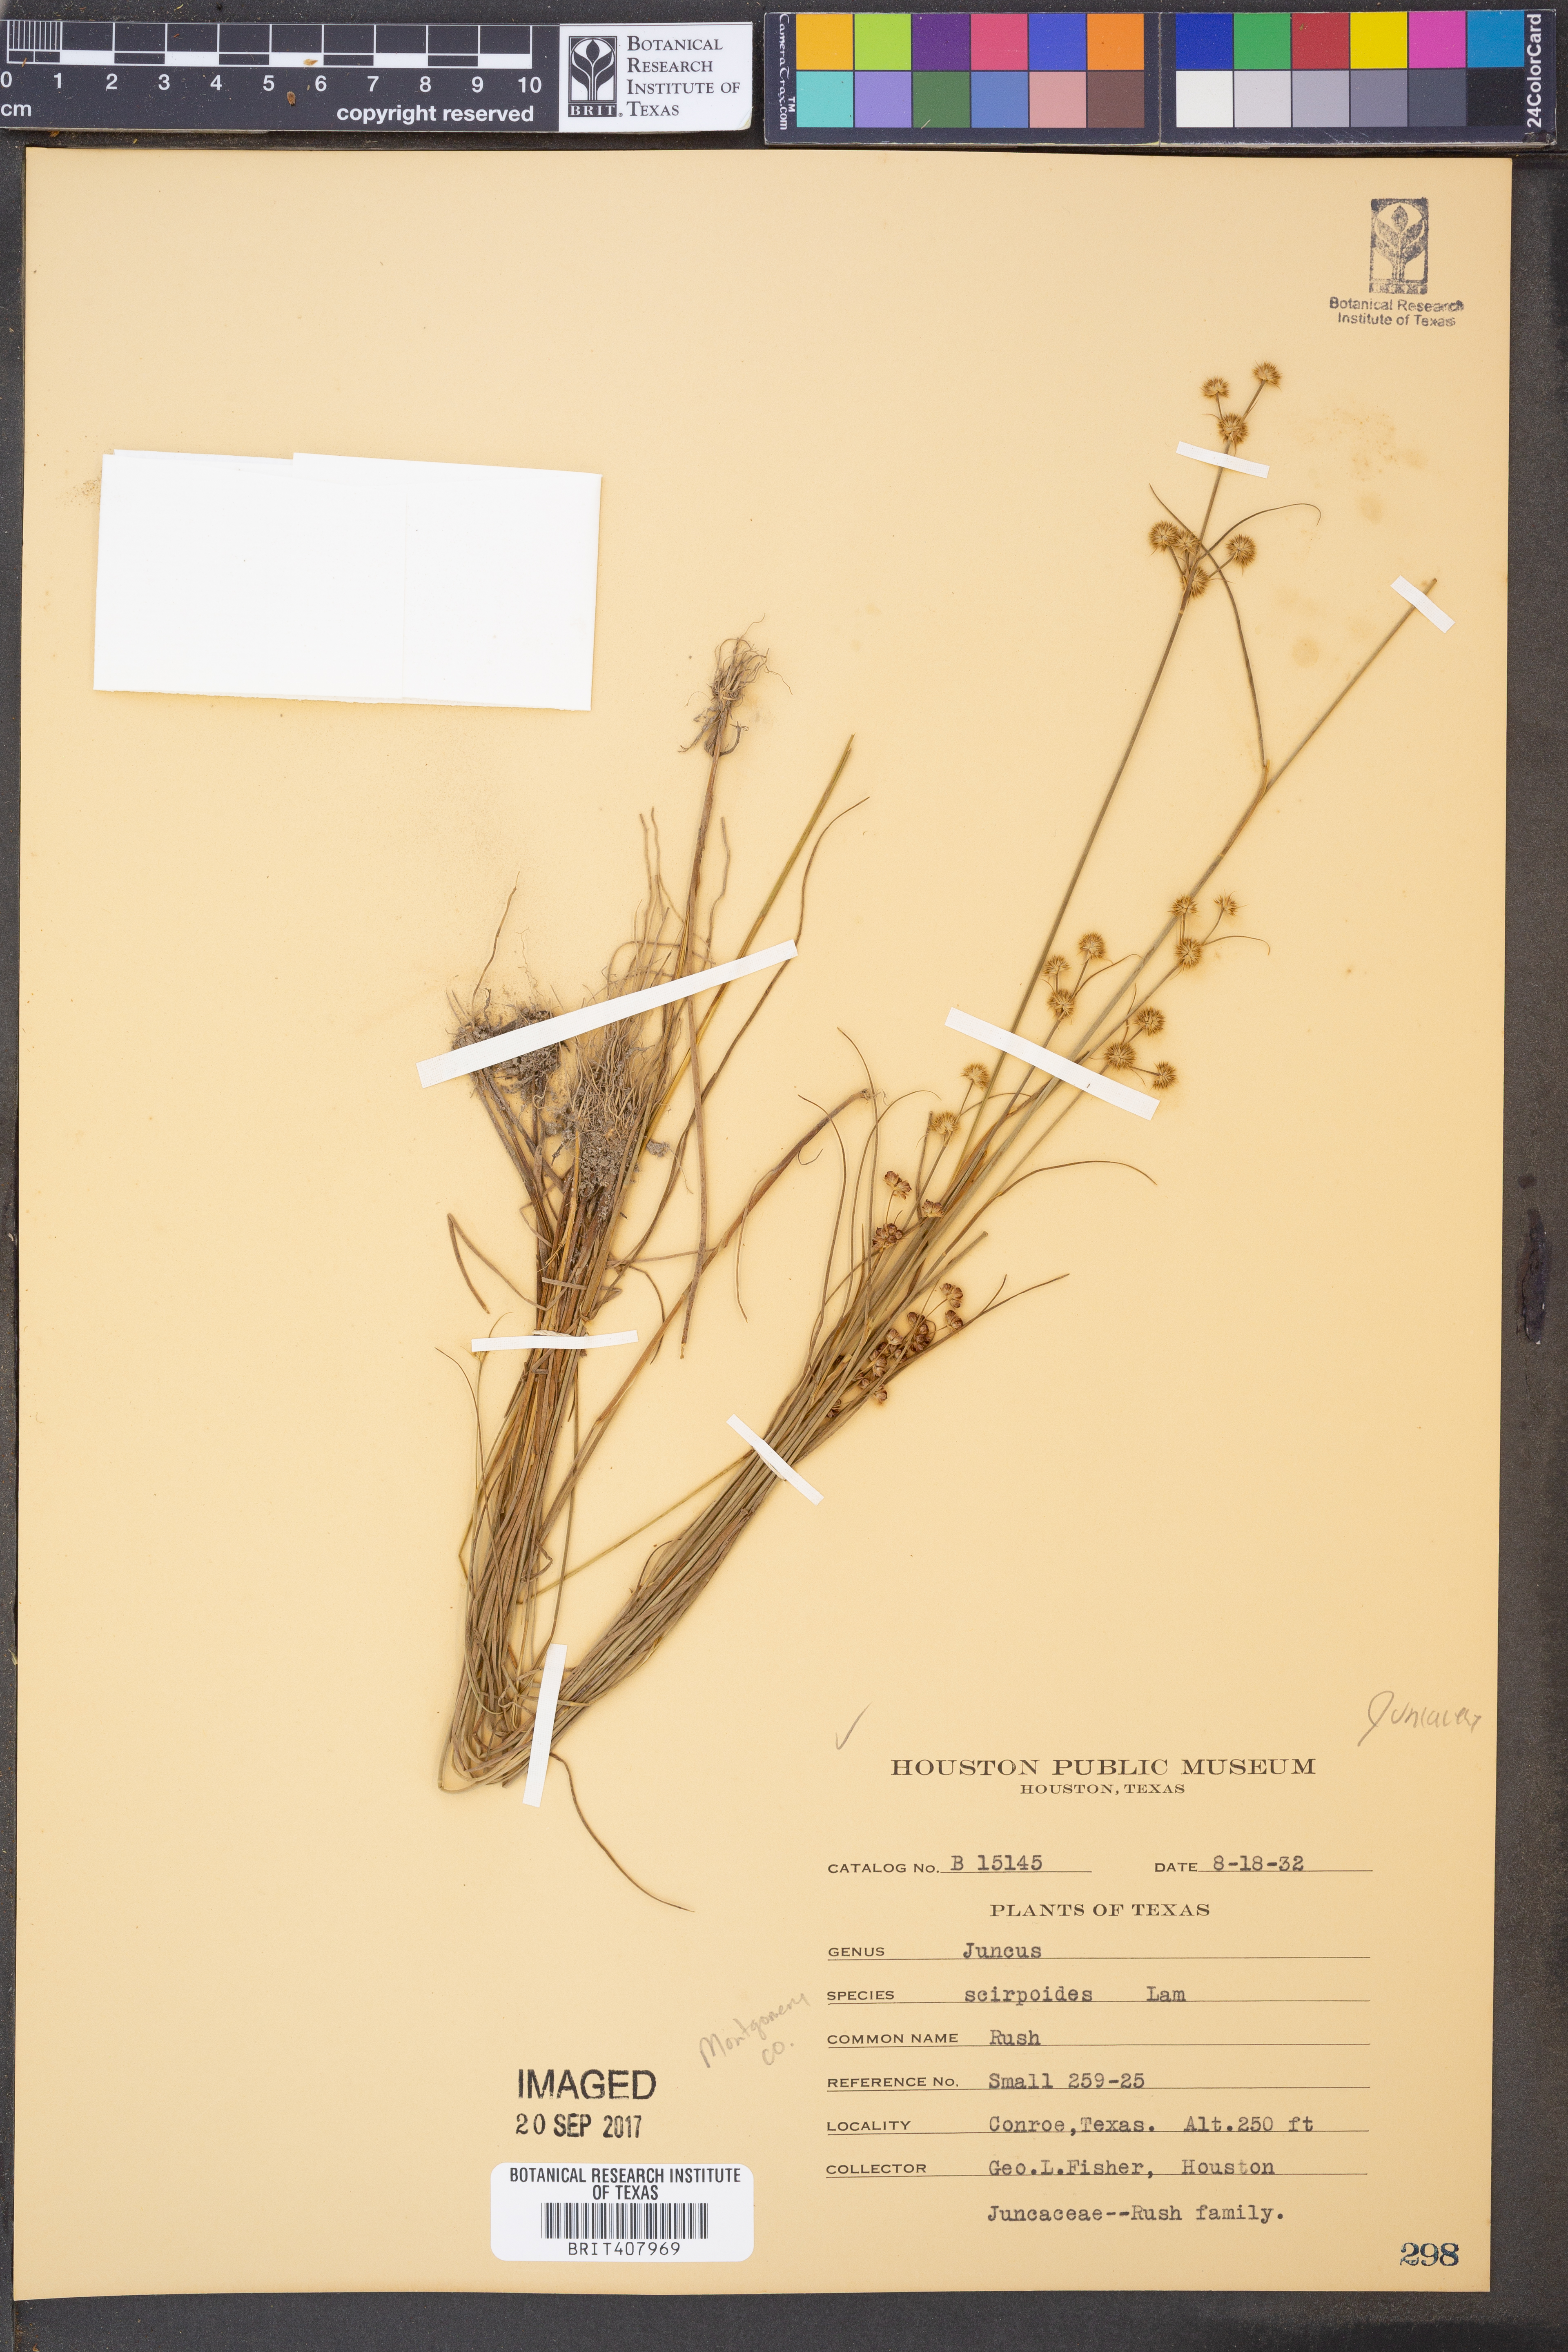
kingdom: Plantae
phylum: Tracheophyta
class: Liliopsida
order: Poales
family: Juncaceae
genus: Juncus
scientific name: Juncus scirpoides
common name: Needlepod rush
